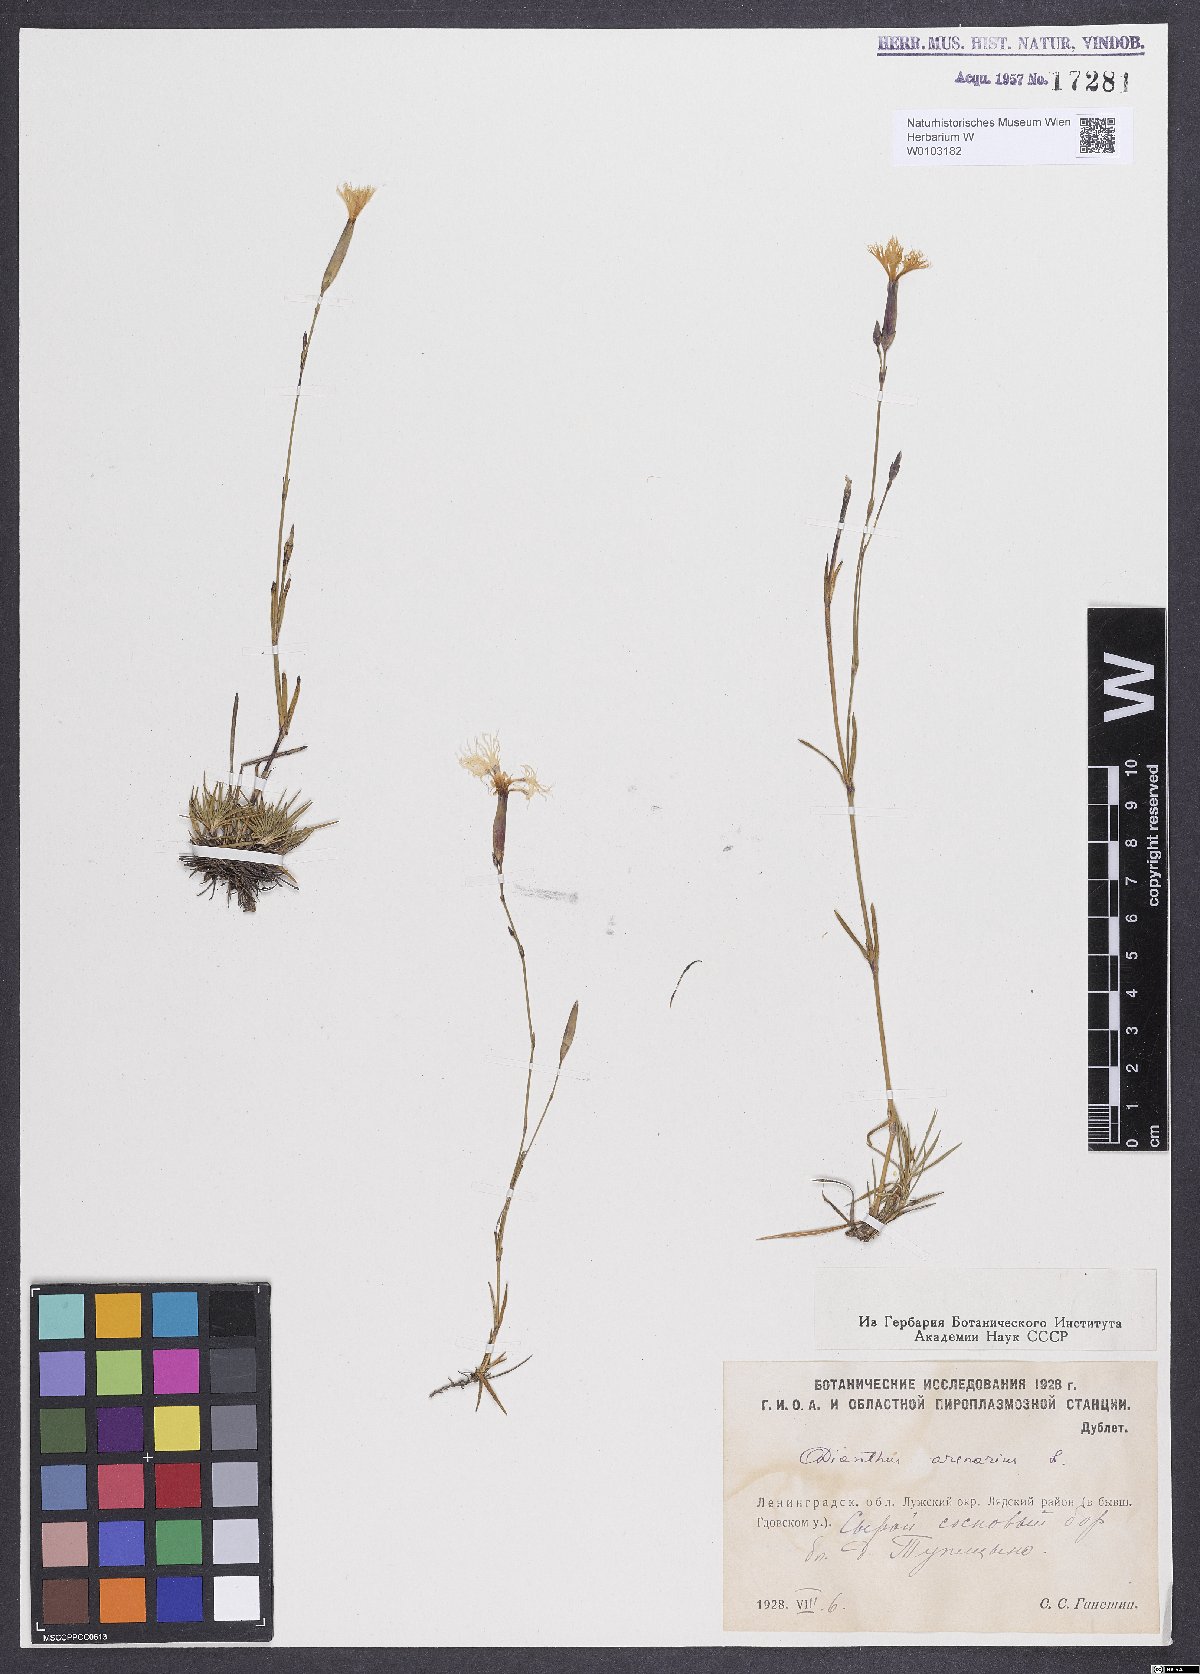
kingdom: Plantae
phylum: Tracheophyta
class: Magnoliopsida
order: Caryophyllales
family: Caryophyllaceae
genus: Dianthus
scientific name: Dianthus arenarius
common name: Stone pink
